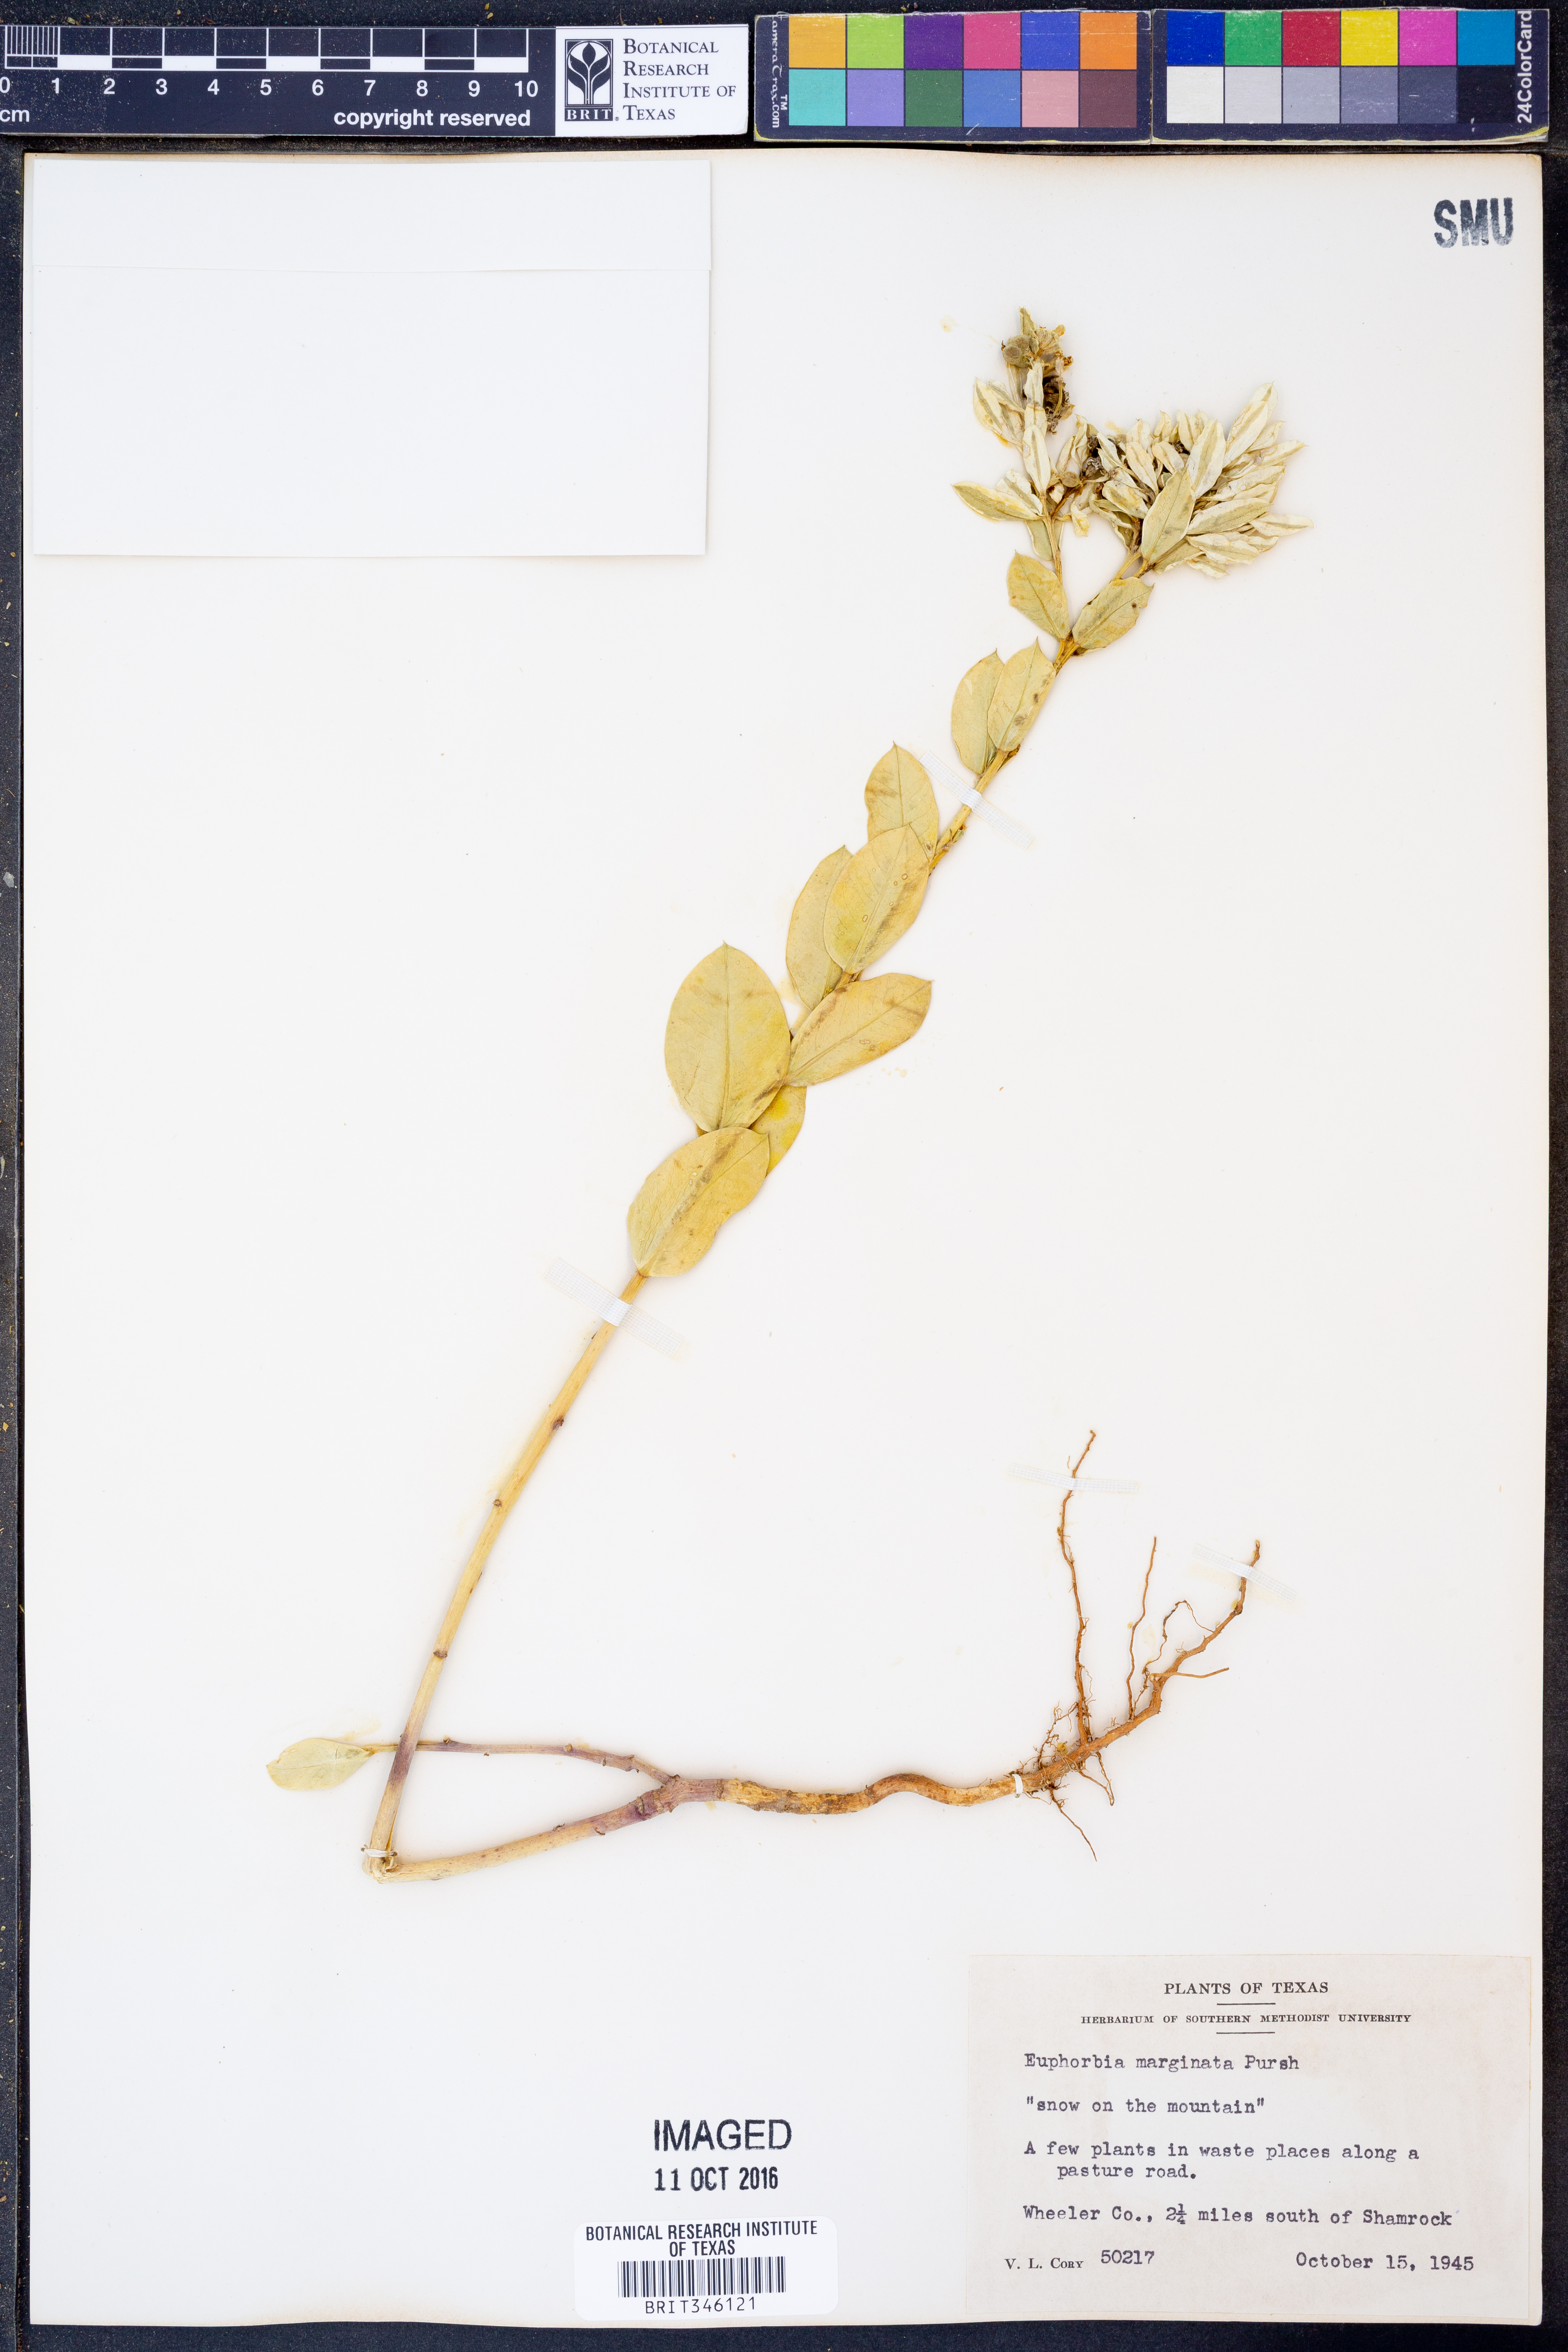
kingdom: Plantae
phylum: Tracheophyta
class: Magnoliopsida
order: Malpighiales
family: Euphorbiaceae
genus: Euphorbia
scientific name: Euphorbia marginata
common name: Ghostweed
